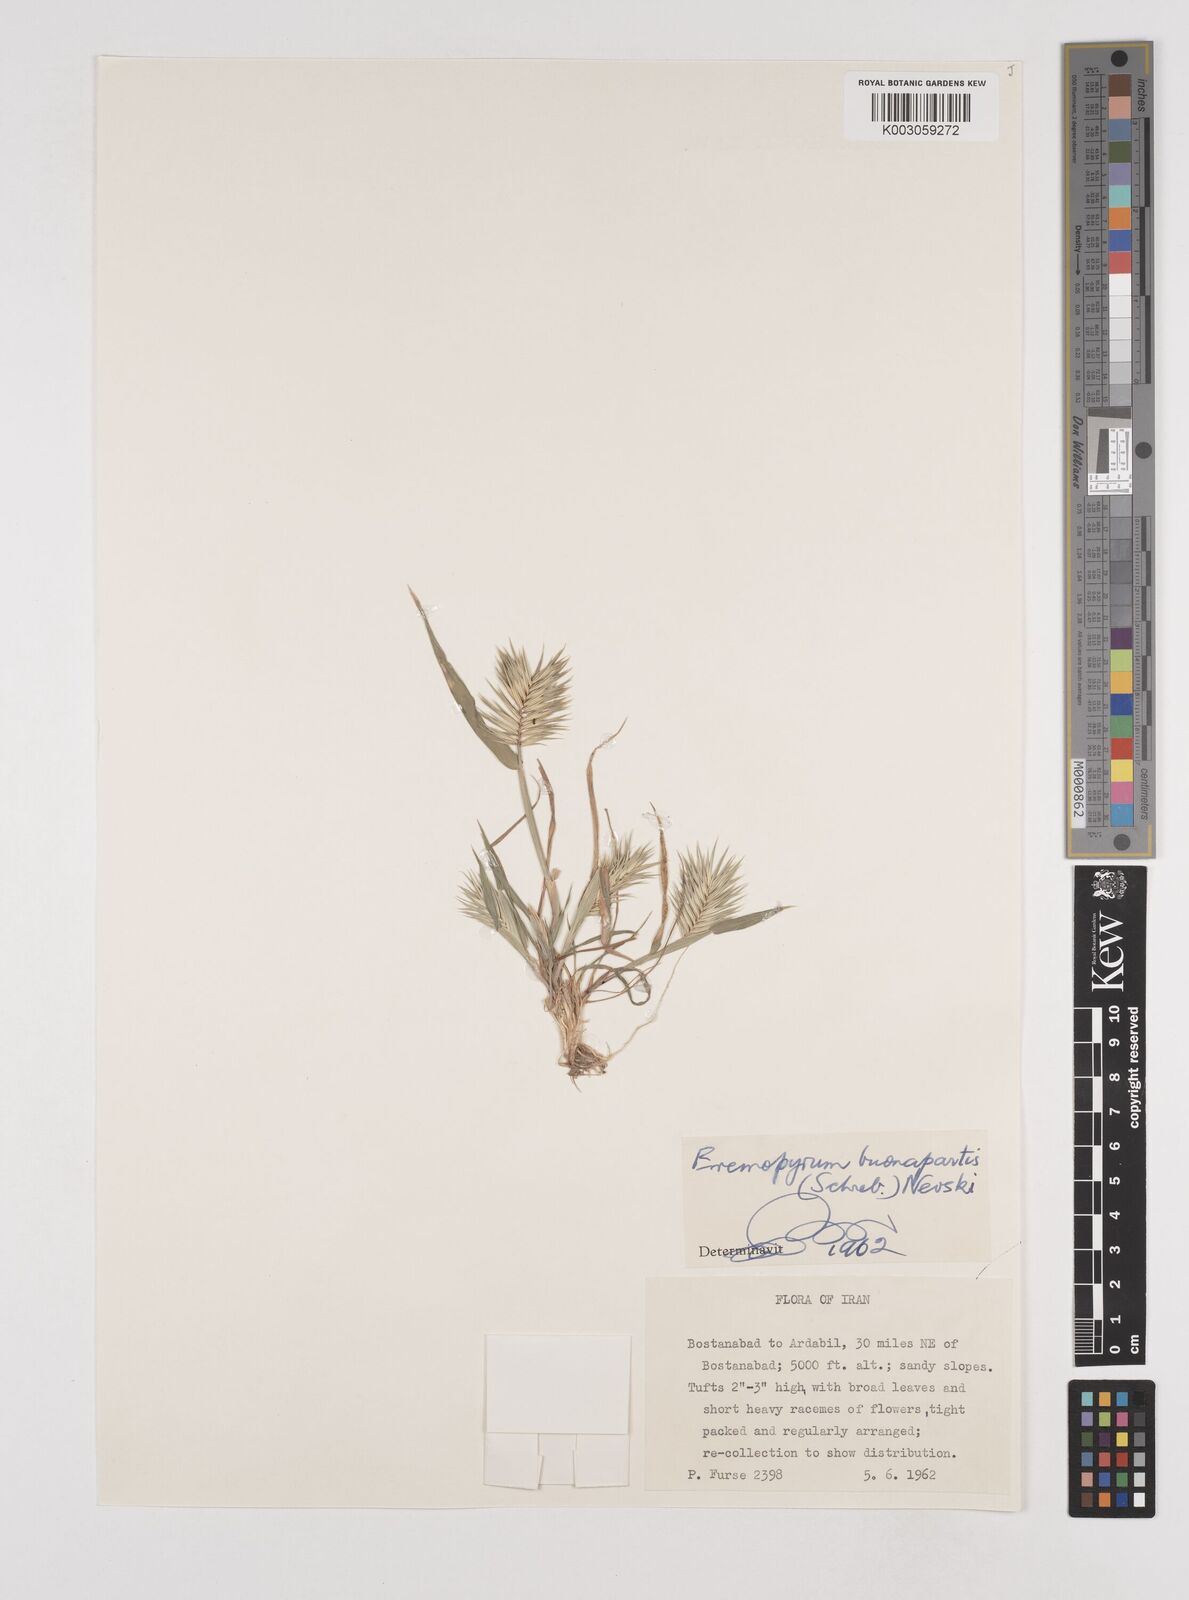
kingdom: Plantae
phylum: Tracheophyta
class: Liliopsida
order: Poales
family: Poaceae
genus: Eremopyrum
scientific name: Eremopyrum bonaepartis
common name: Tapertip false wheatgrass
